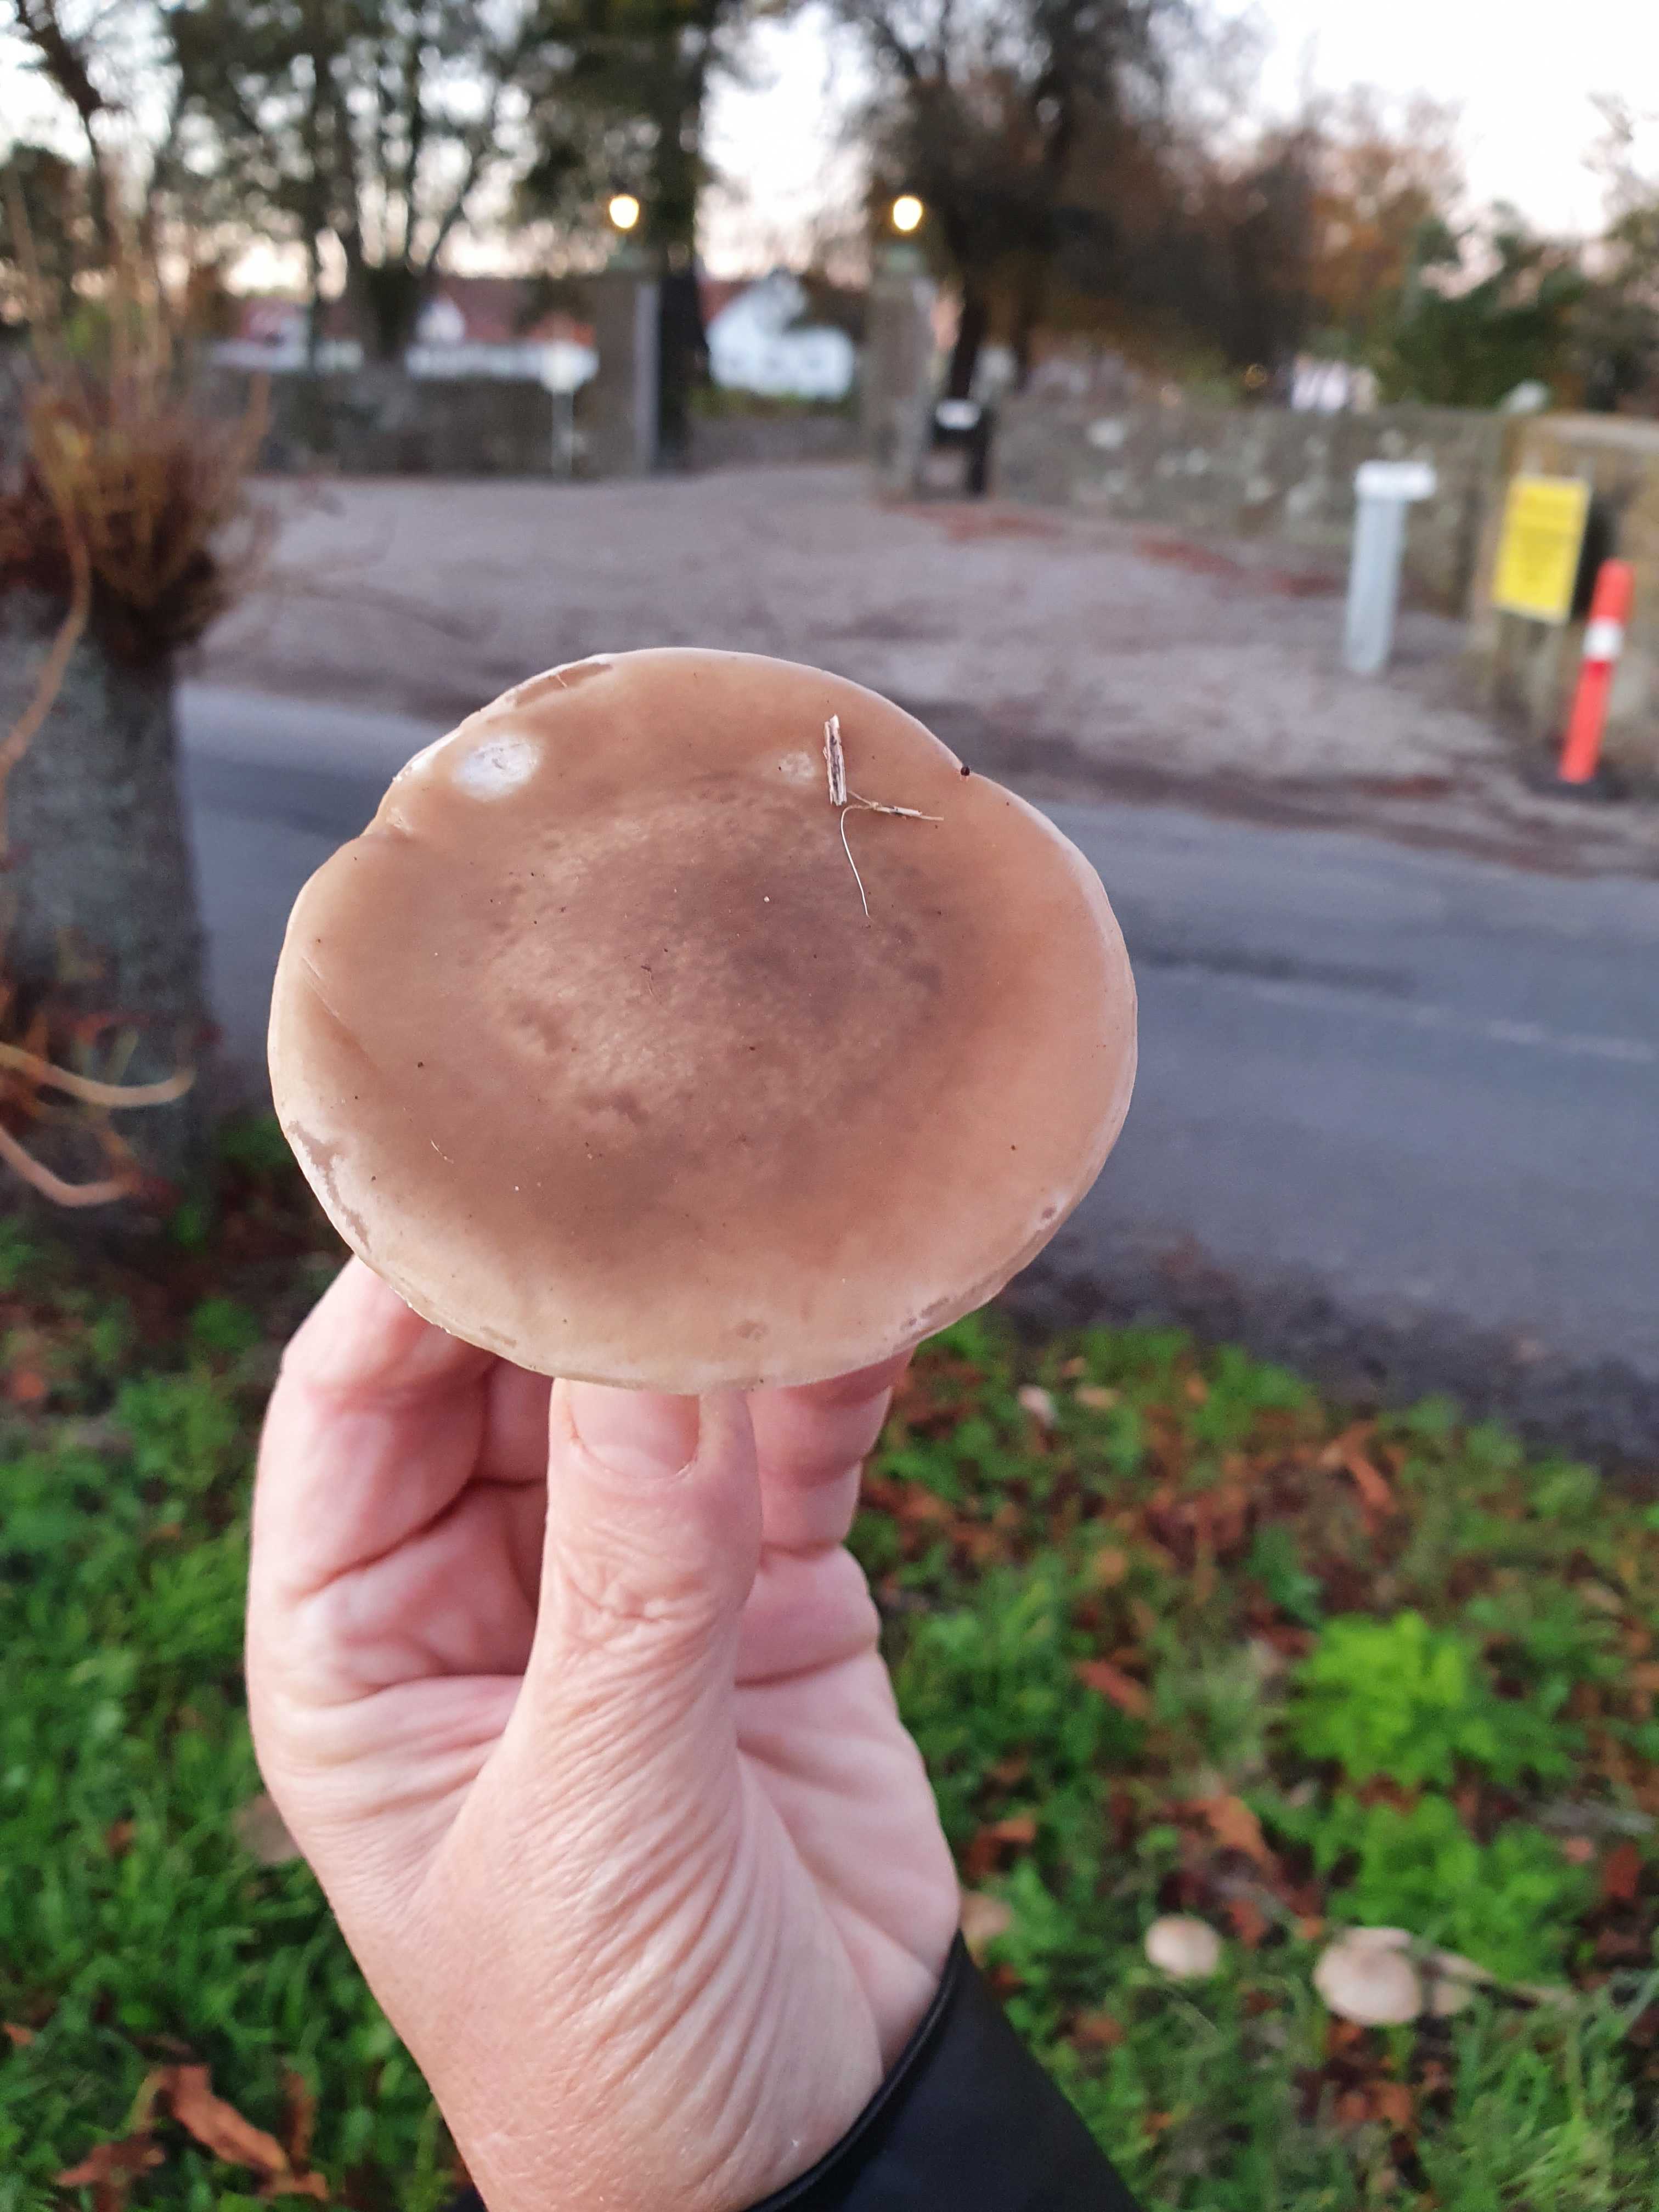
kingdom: Fungi
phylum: Basidiomycota
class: Agaricomycetes
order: Agaricales
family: Tricholomataceae
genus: Lepista
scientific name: Lepista personata
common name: bleg hekseringshat
